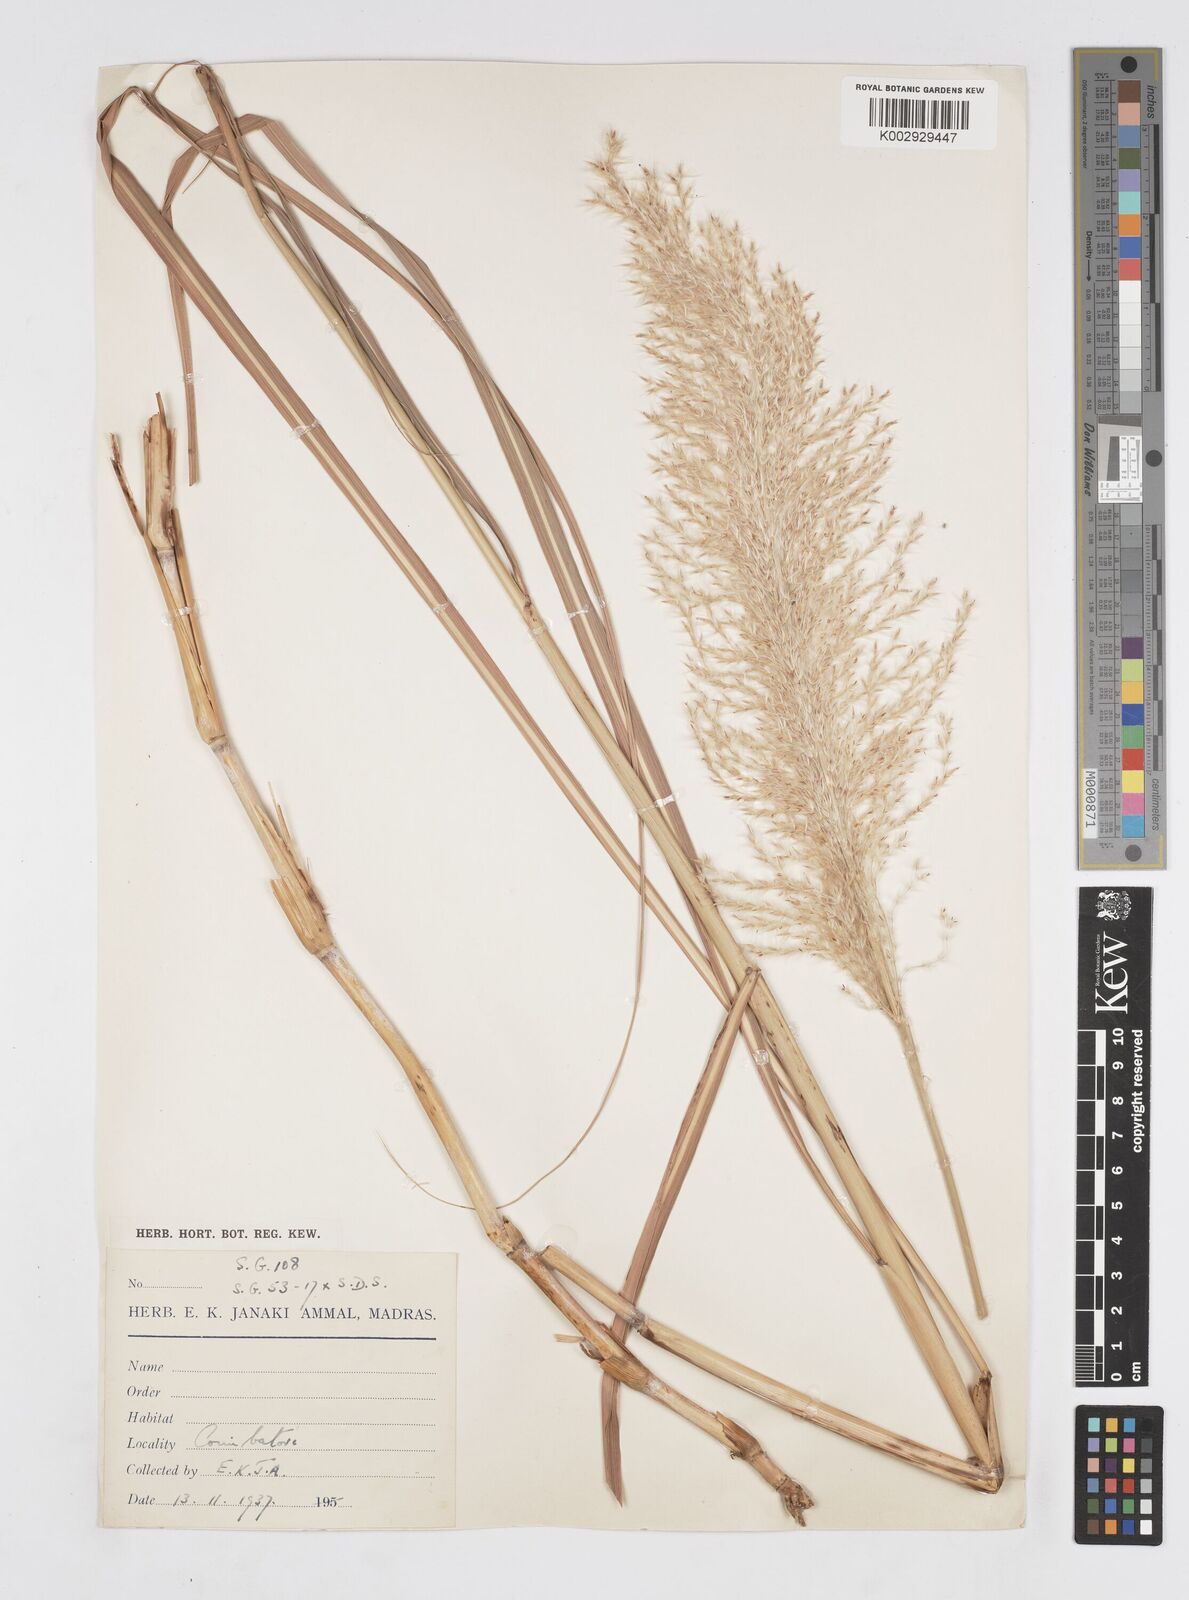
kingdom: Plantae
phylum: Tracheophyta
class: Liliopsida
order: Poales
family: Poaceae
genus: Saccharum
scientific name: Saccharum
